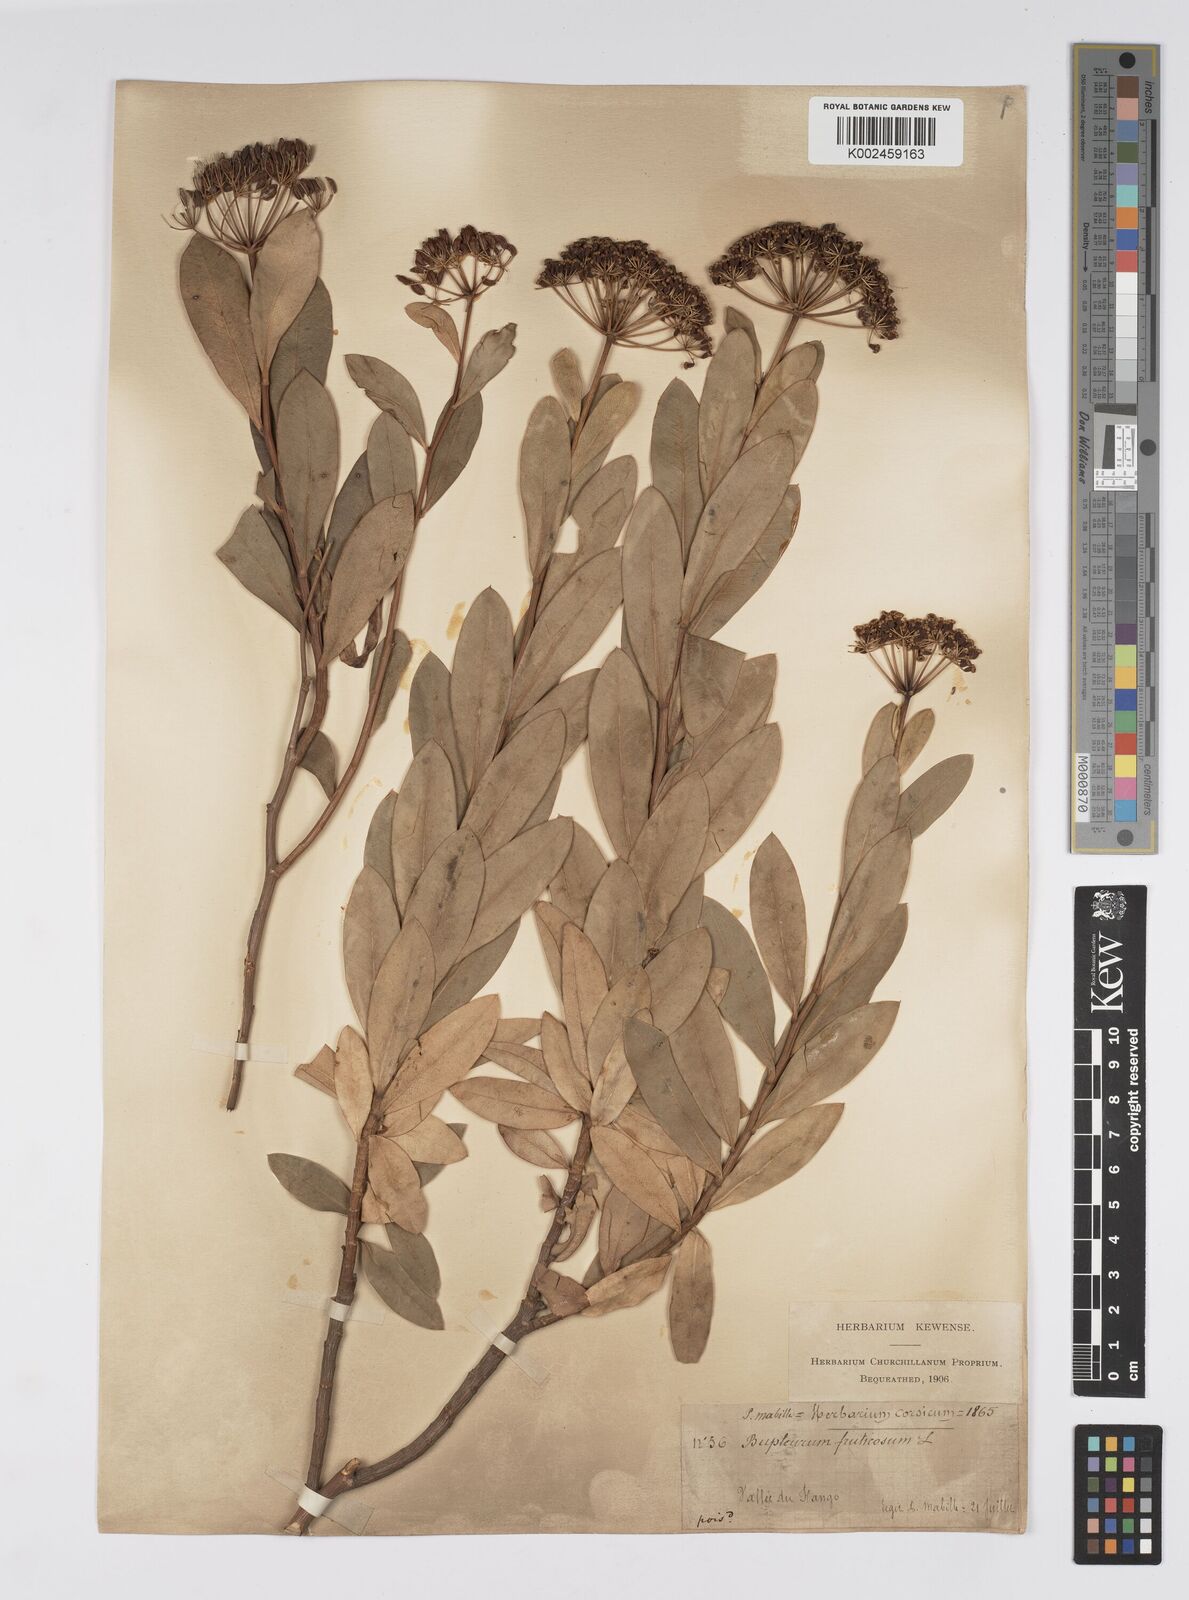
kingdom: Plantae
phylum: Tracheophyta
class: Magnoliopsida
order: Apiales
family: Apiaceae
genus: Bupleurum
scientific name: Bupleurum fruticosum
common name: Shrubby hare's-ear
